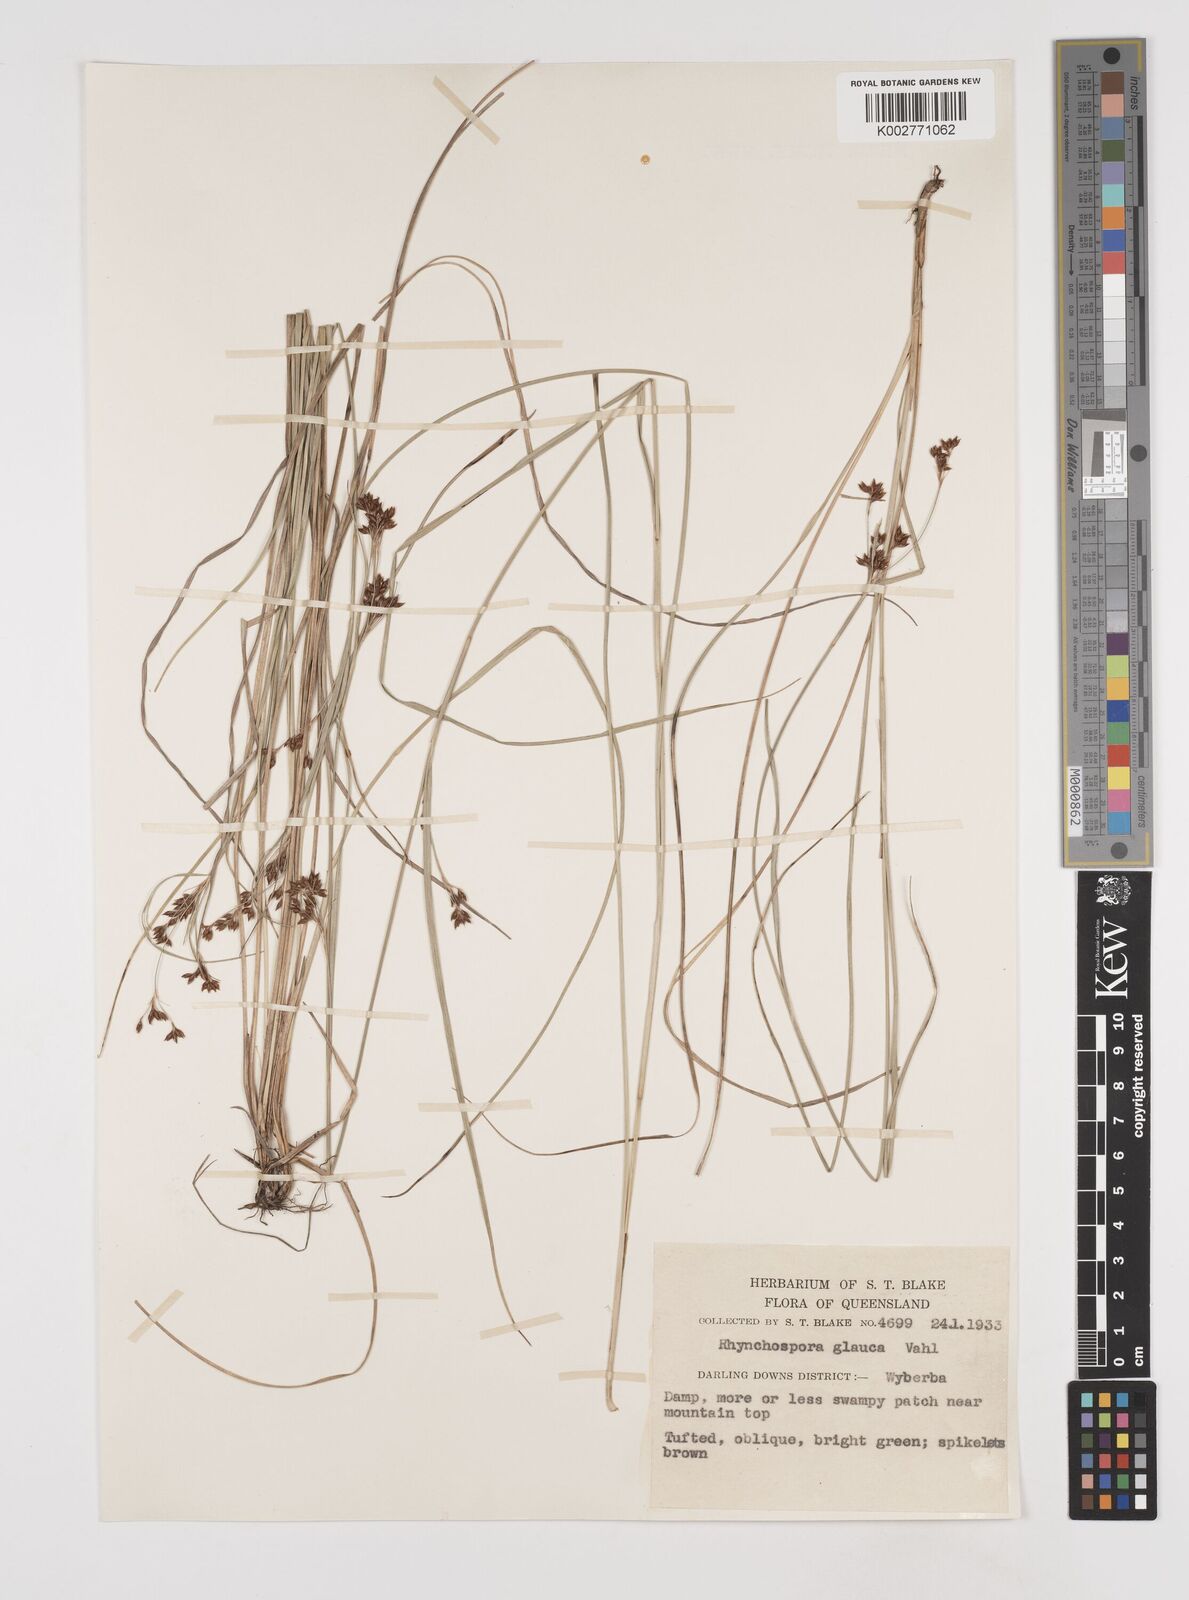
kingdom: Plantae
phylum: Tracheophyta
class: Liliopsida
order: Poales
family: Cyperaceae
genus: Rhynchospora
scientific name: Rhynchospora rugosa
